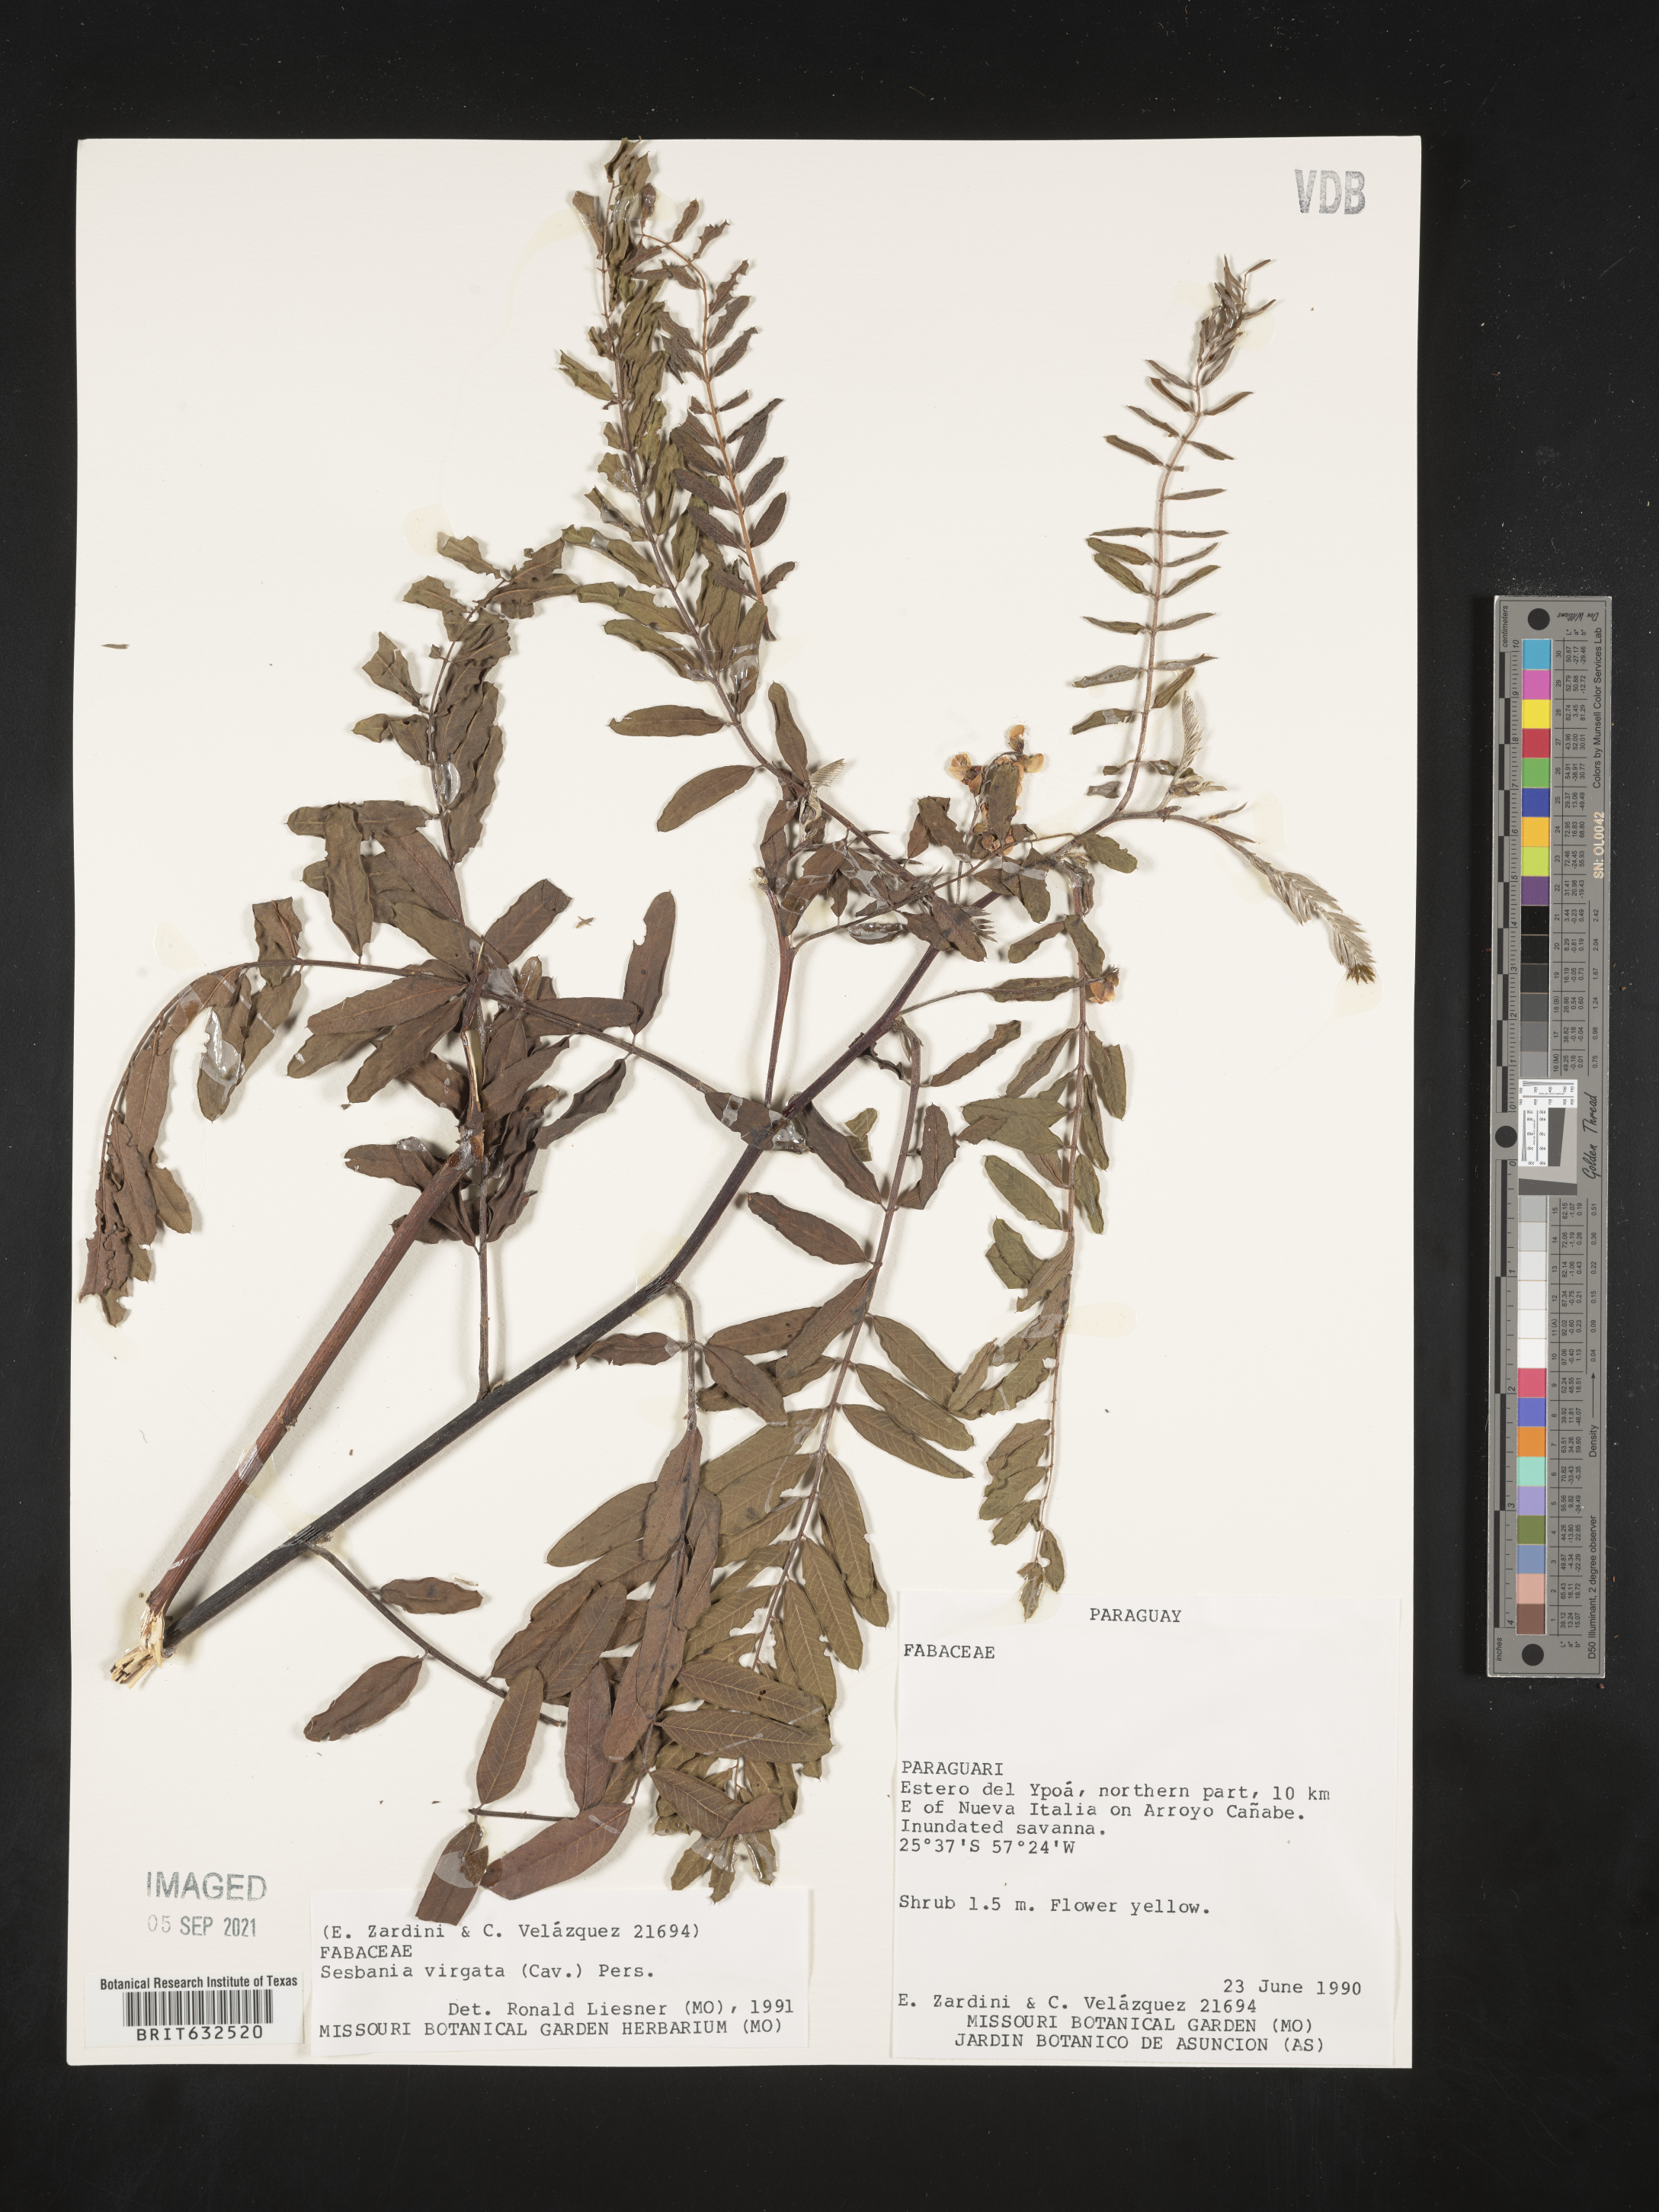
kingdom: Plantae
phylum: Tracheophyta
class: Magnoliopsida
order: Fabales
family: Fabaceae
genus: Sesbania
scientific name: Sesbania
